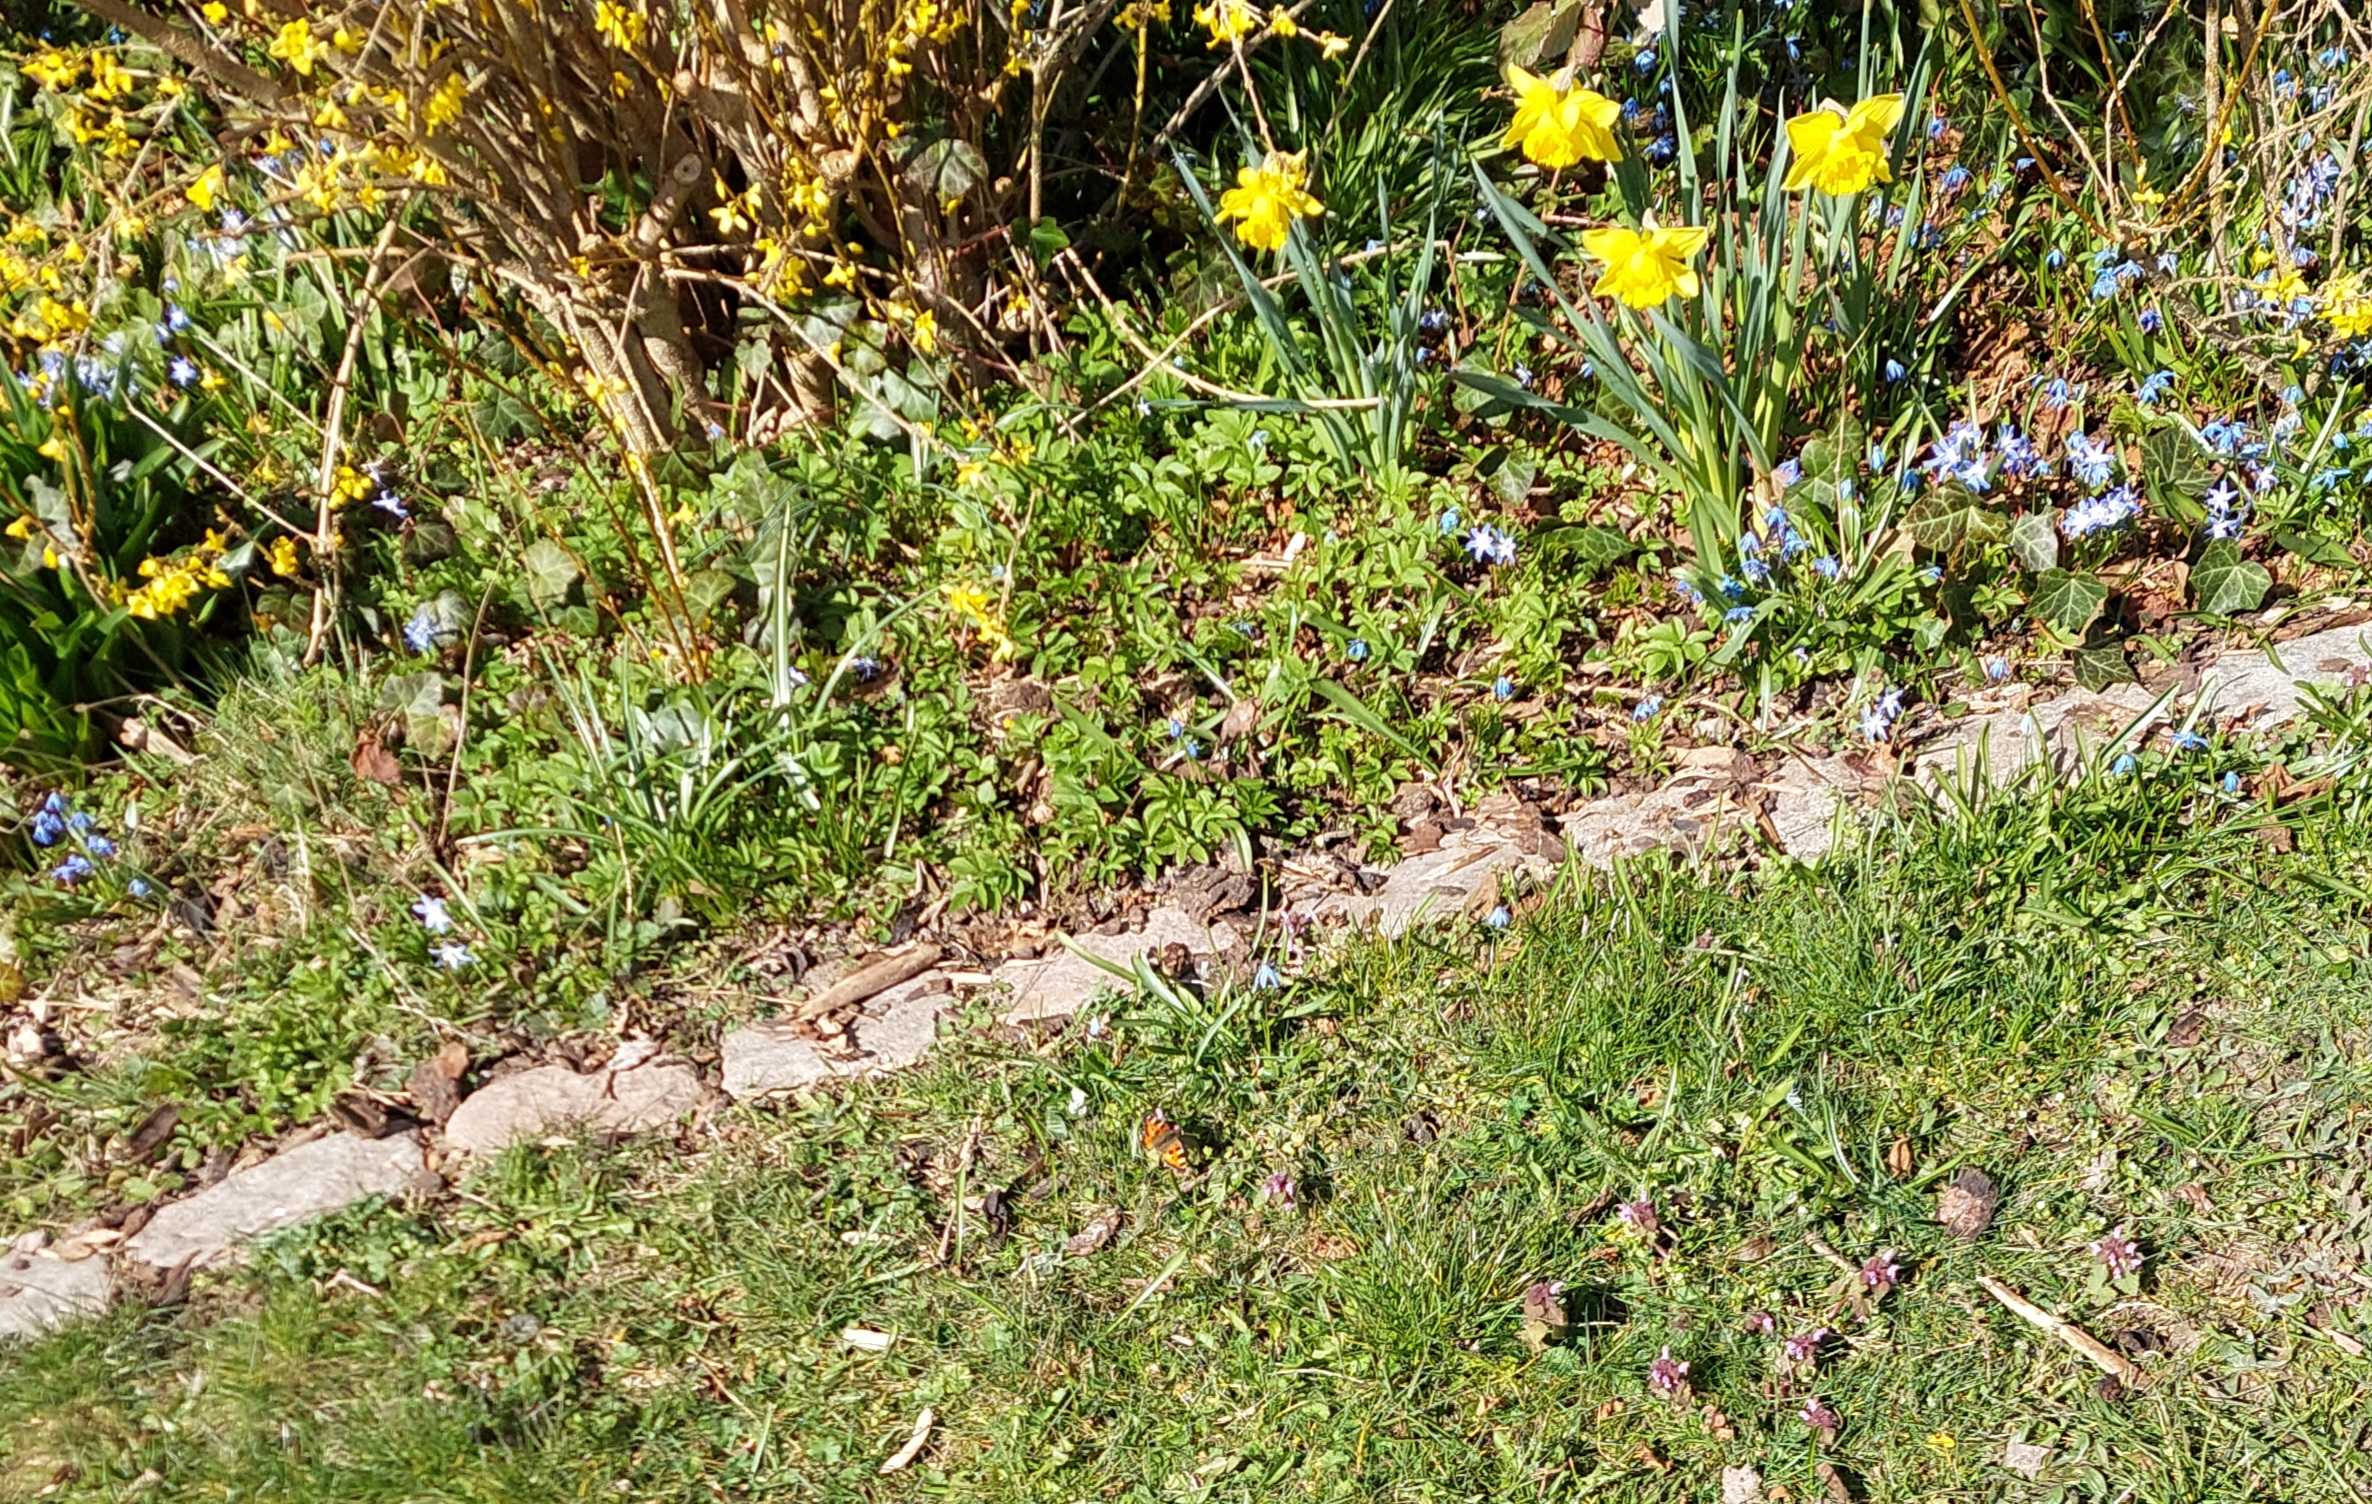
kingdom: Animalia
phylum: Arthropoda
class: Insecta
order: Lepidoptera
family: Nymphalidae
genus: Aglais
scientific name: Aglais urticae
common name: Nældens takvinge
